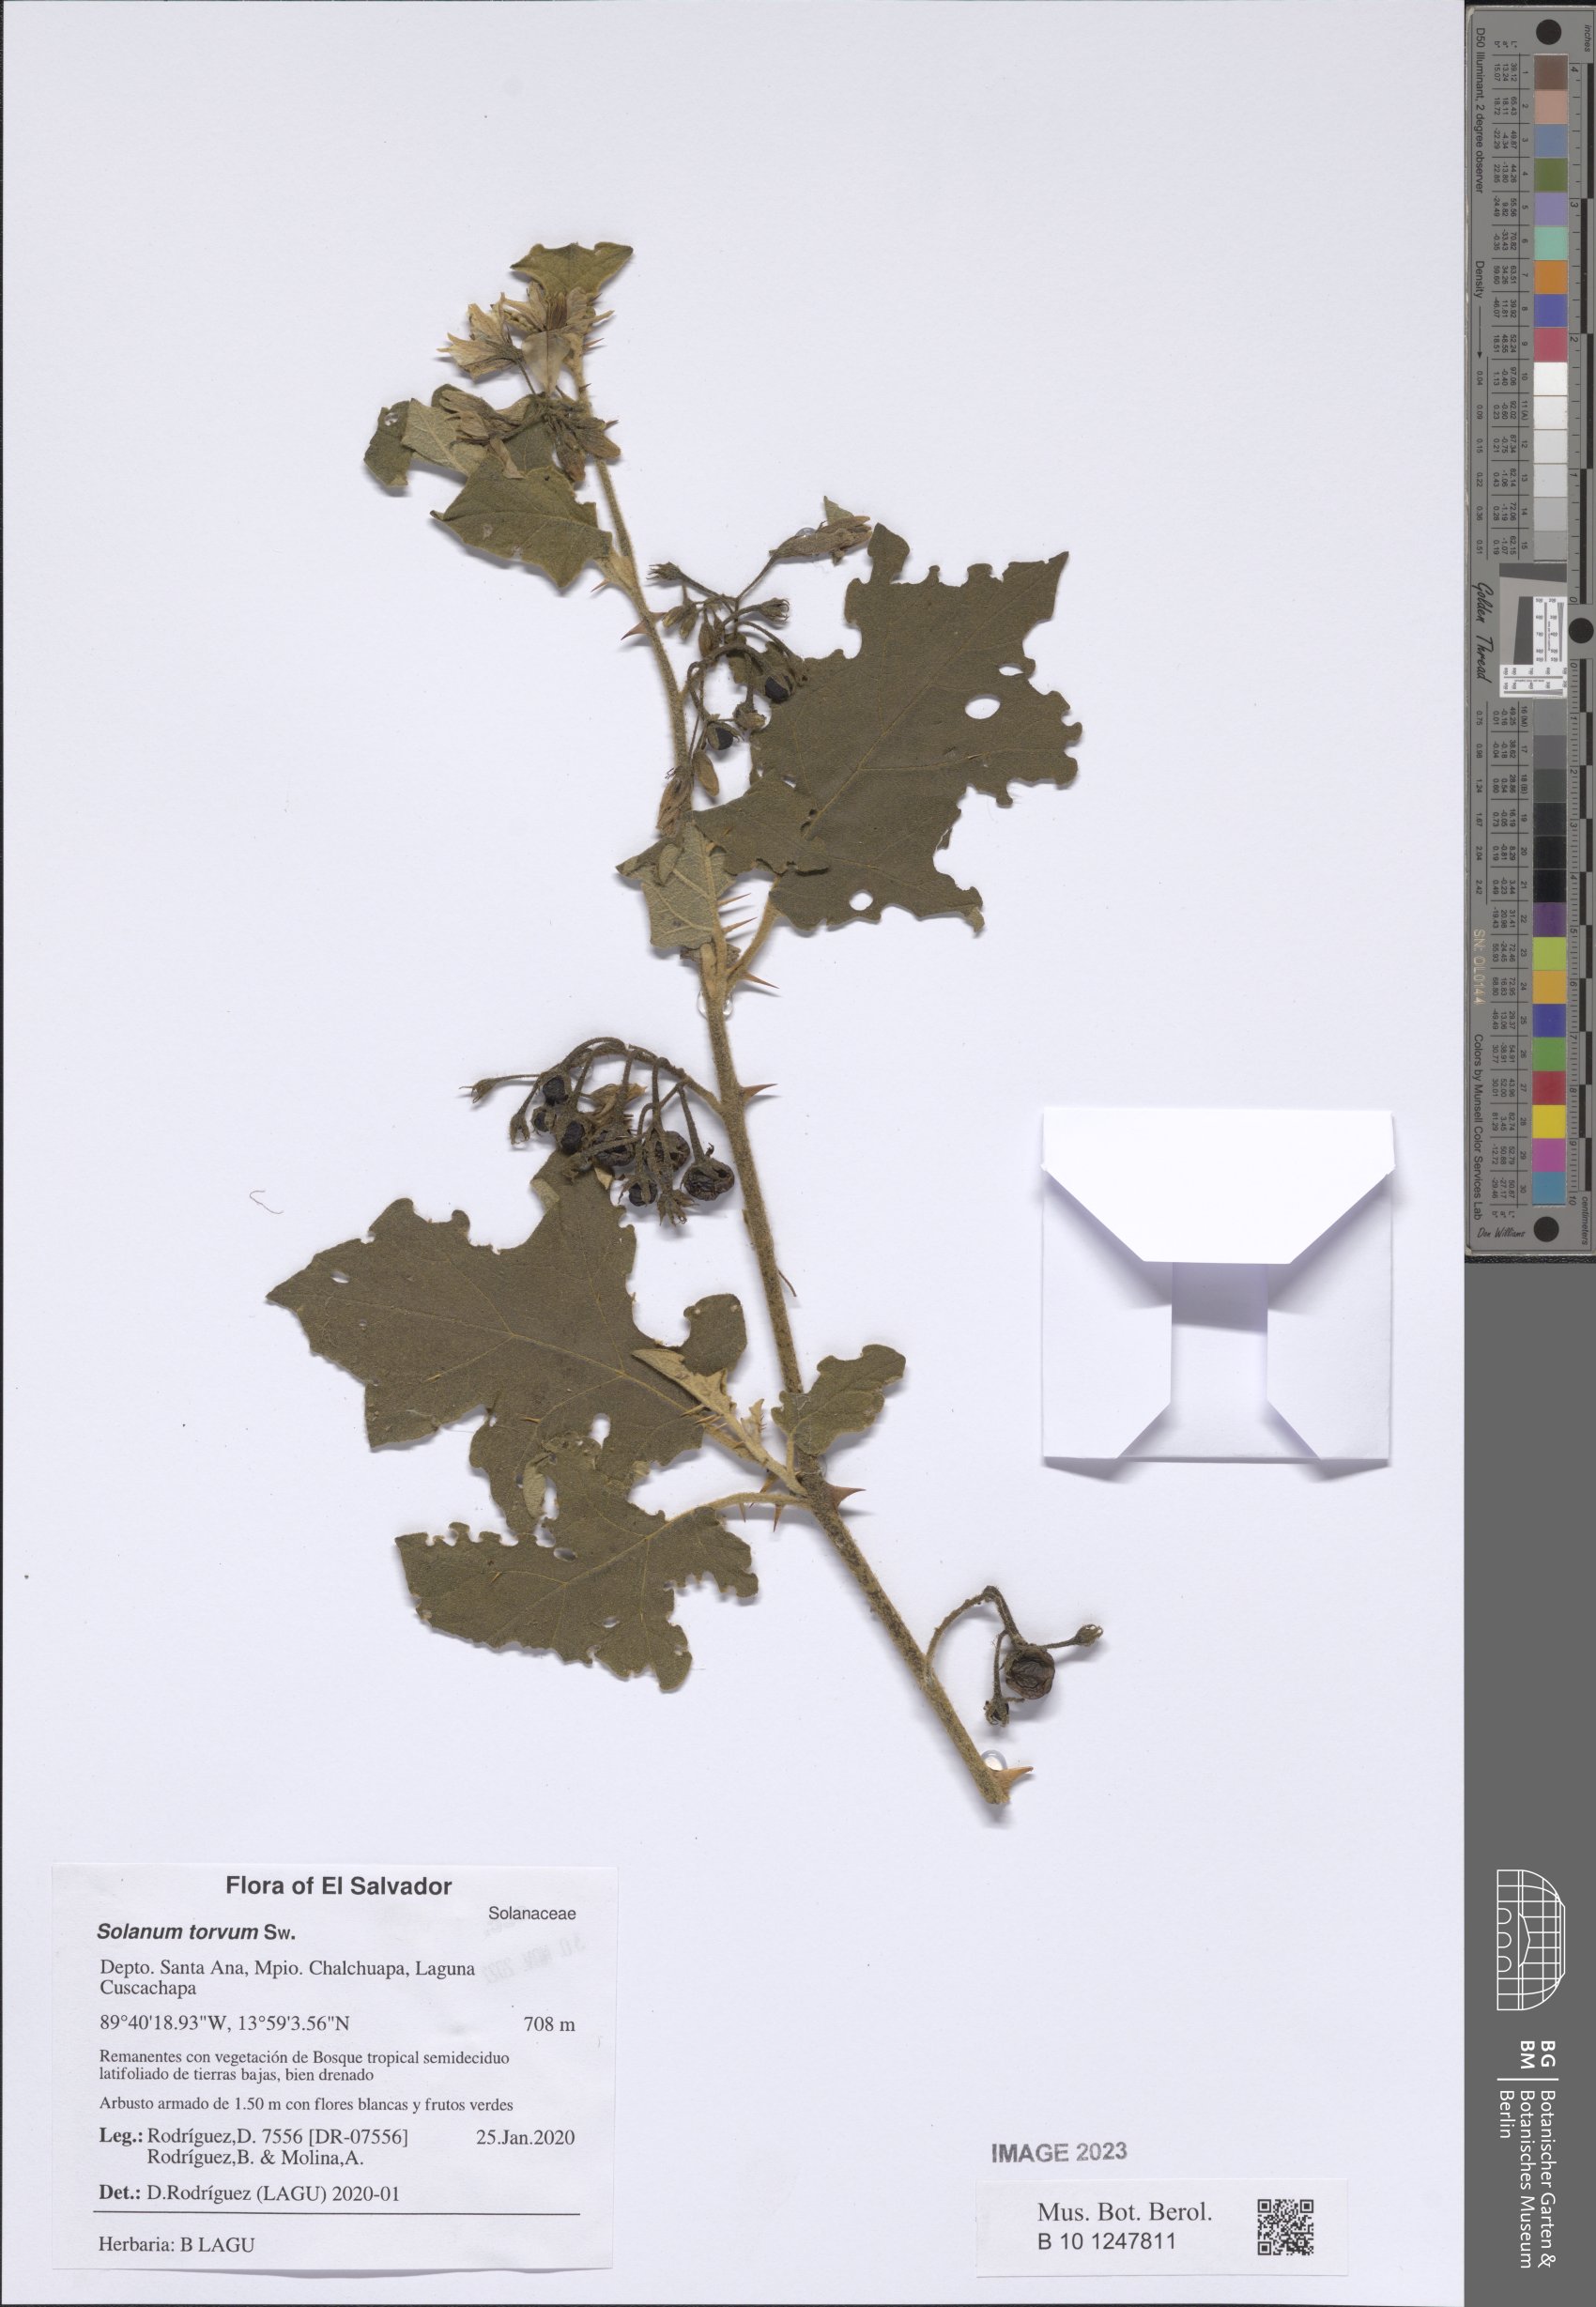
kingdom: Plantae
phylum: Tracheophyta
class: Magnoliopsida
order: Solanales
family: Solanaceae
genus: Solanum
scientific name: Solanum torvum
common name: Turkey berry
